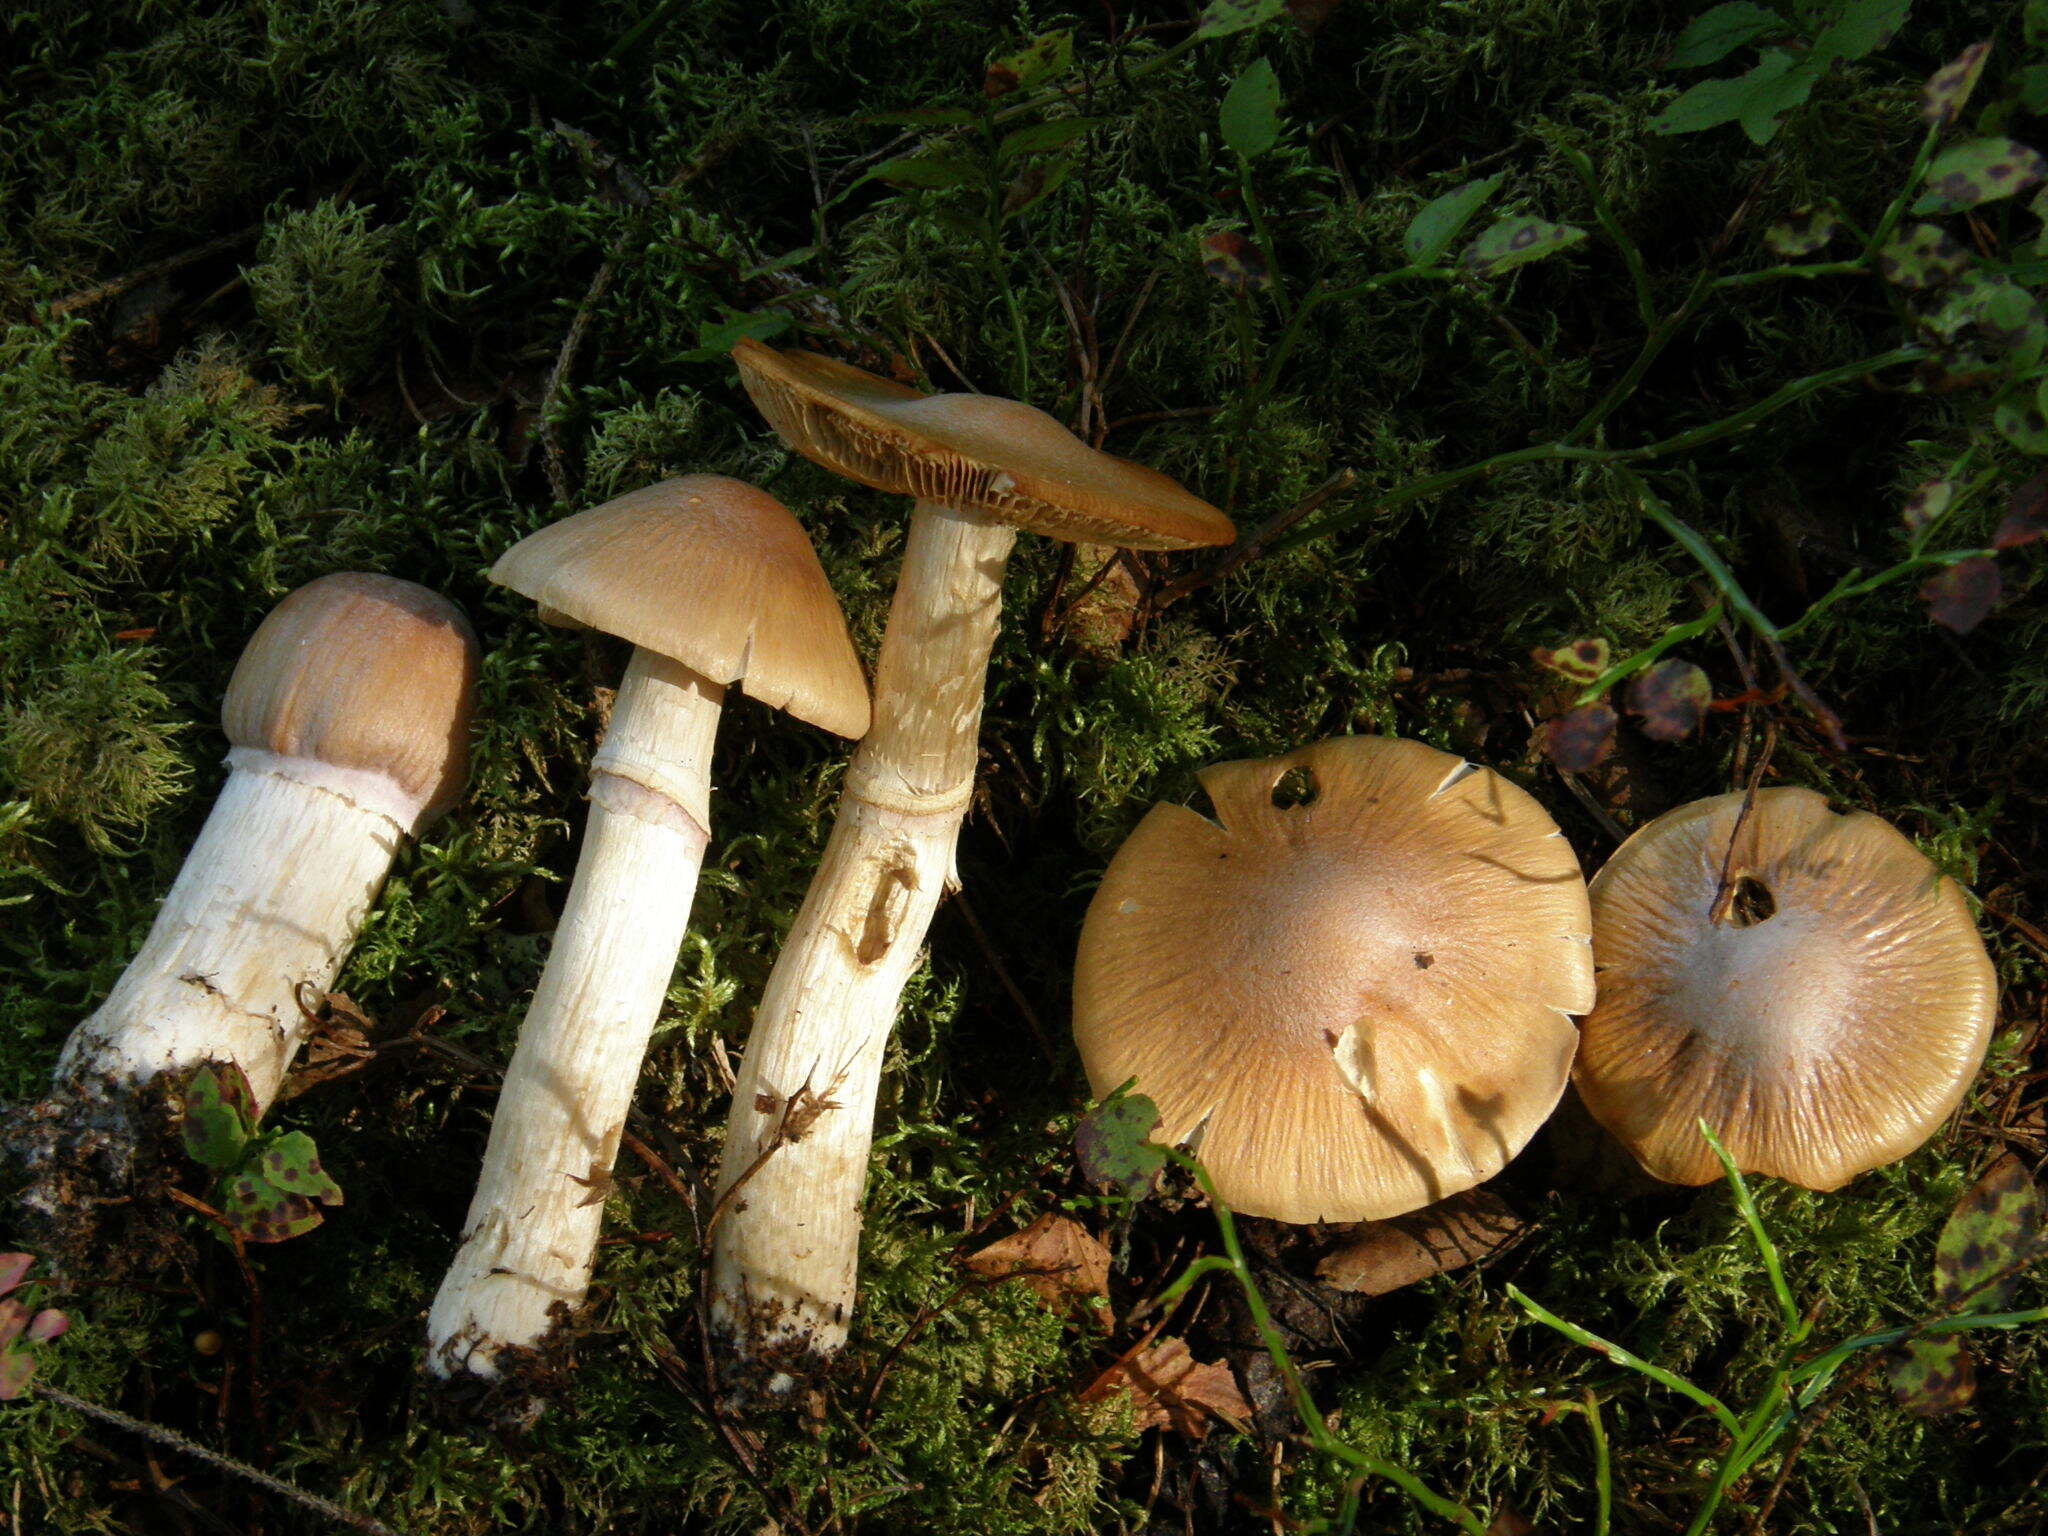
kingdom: Fungi
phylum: Basidiomycota
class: Agaricomycetes
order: Agaricales
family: Cortinariaceae
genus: Cortinarius
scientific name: Cortinarius caperatus
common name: The gypsy
